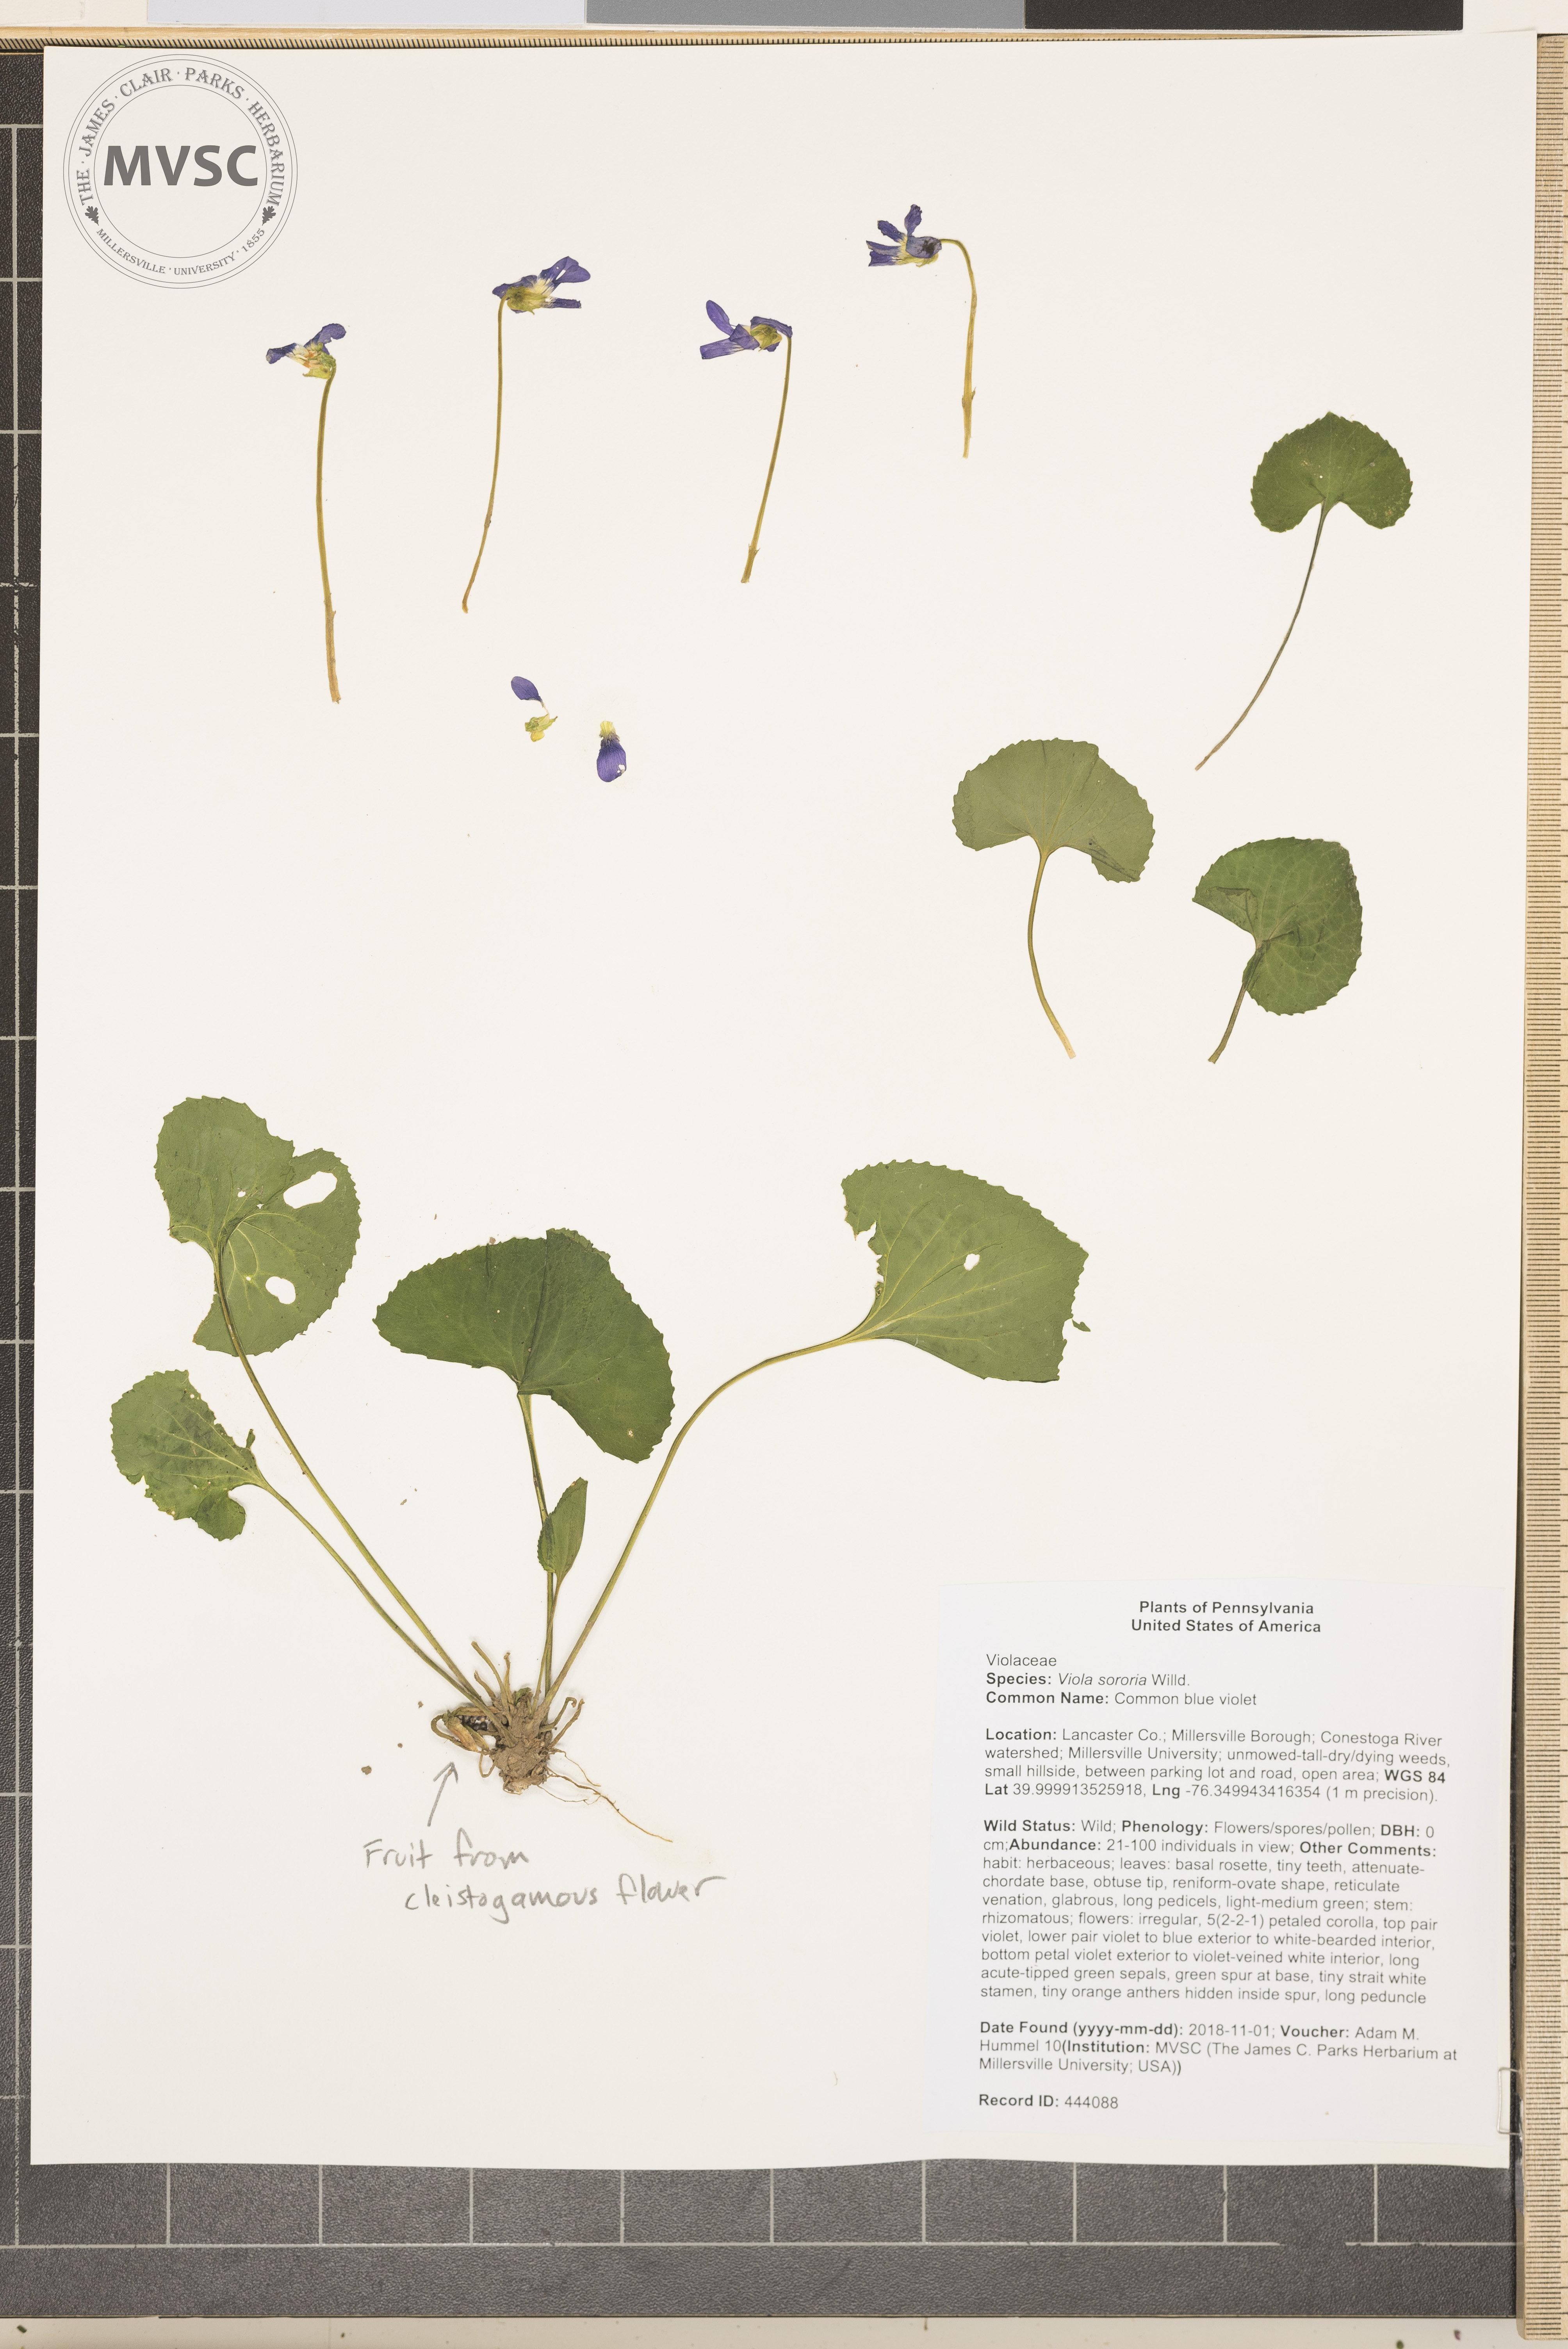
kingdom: Plantae
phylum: Tracheophyta
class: Magnoliopsida
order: Malpighiales
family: Violaceae
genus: Viola
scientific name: Viola sororia
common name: Common blue violet
